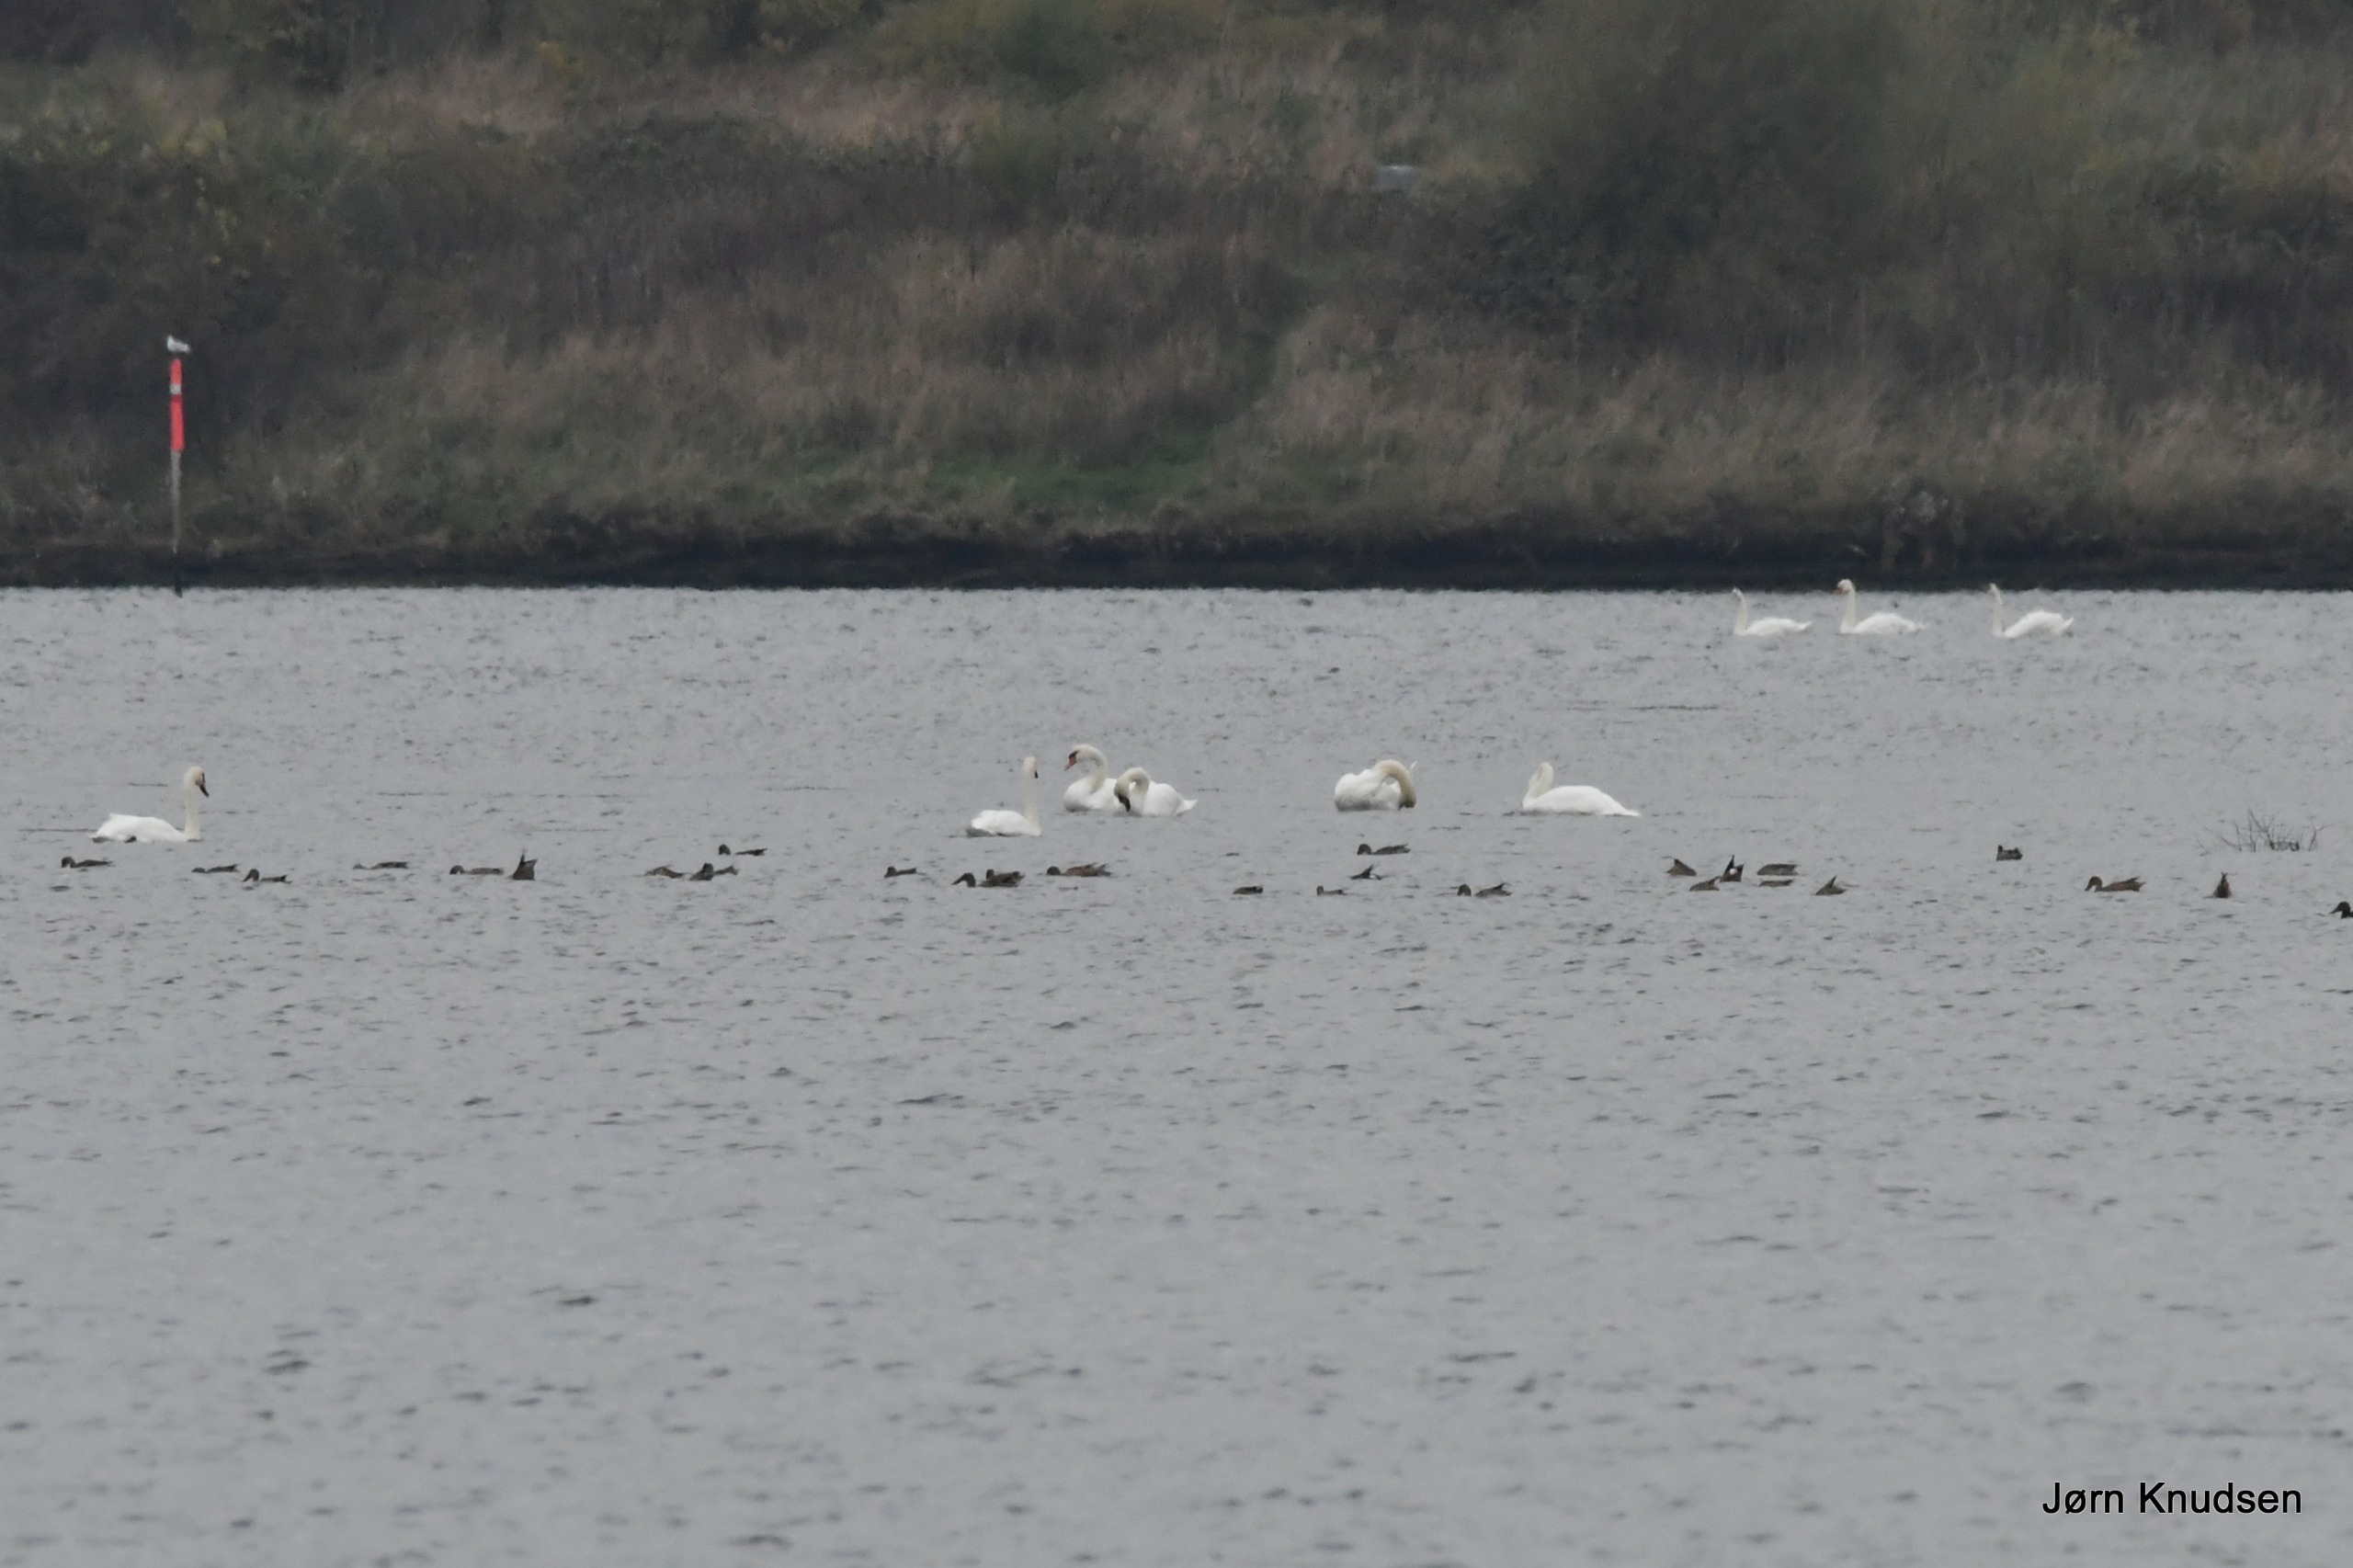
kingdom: Animalia
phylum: Chordata
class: Aves
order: Anseriformes
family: Anatidae
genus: Cygnus
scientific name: Cygnus olor
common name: Knopsvane
